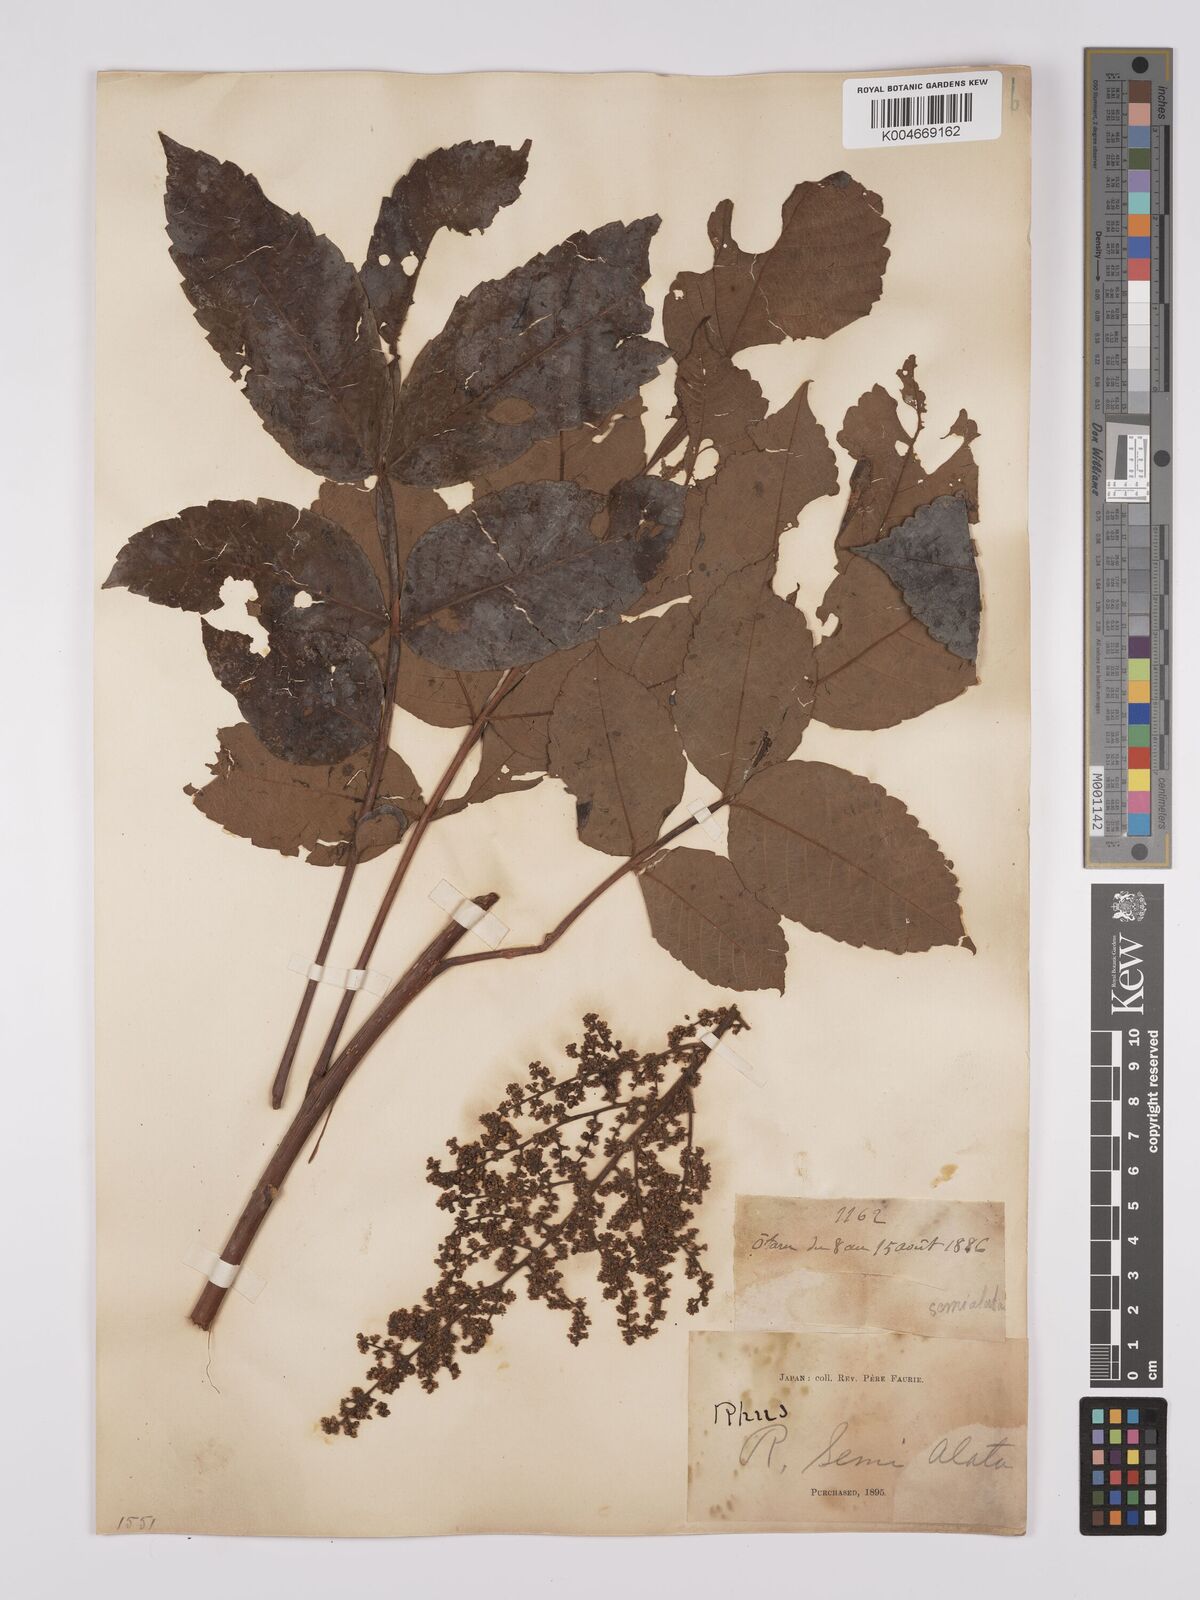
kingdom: Plantae
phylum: Tracheophyta
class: Magnoliopsida
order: Sapindales
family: Anacardiaceae
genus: Rhus
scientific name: Rhus chinensis
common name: Chinese gall
